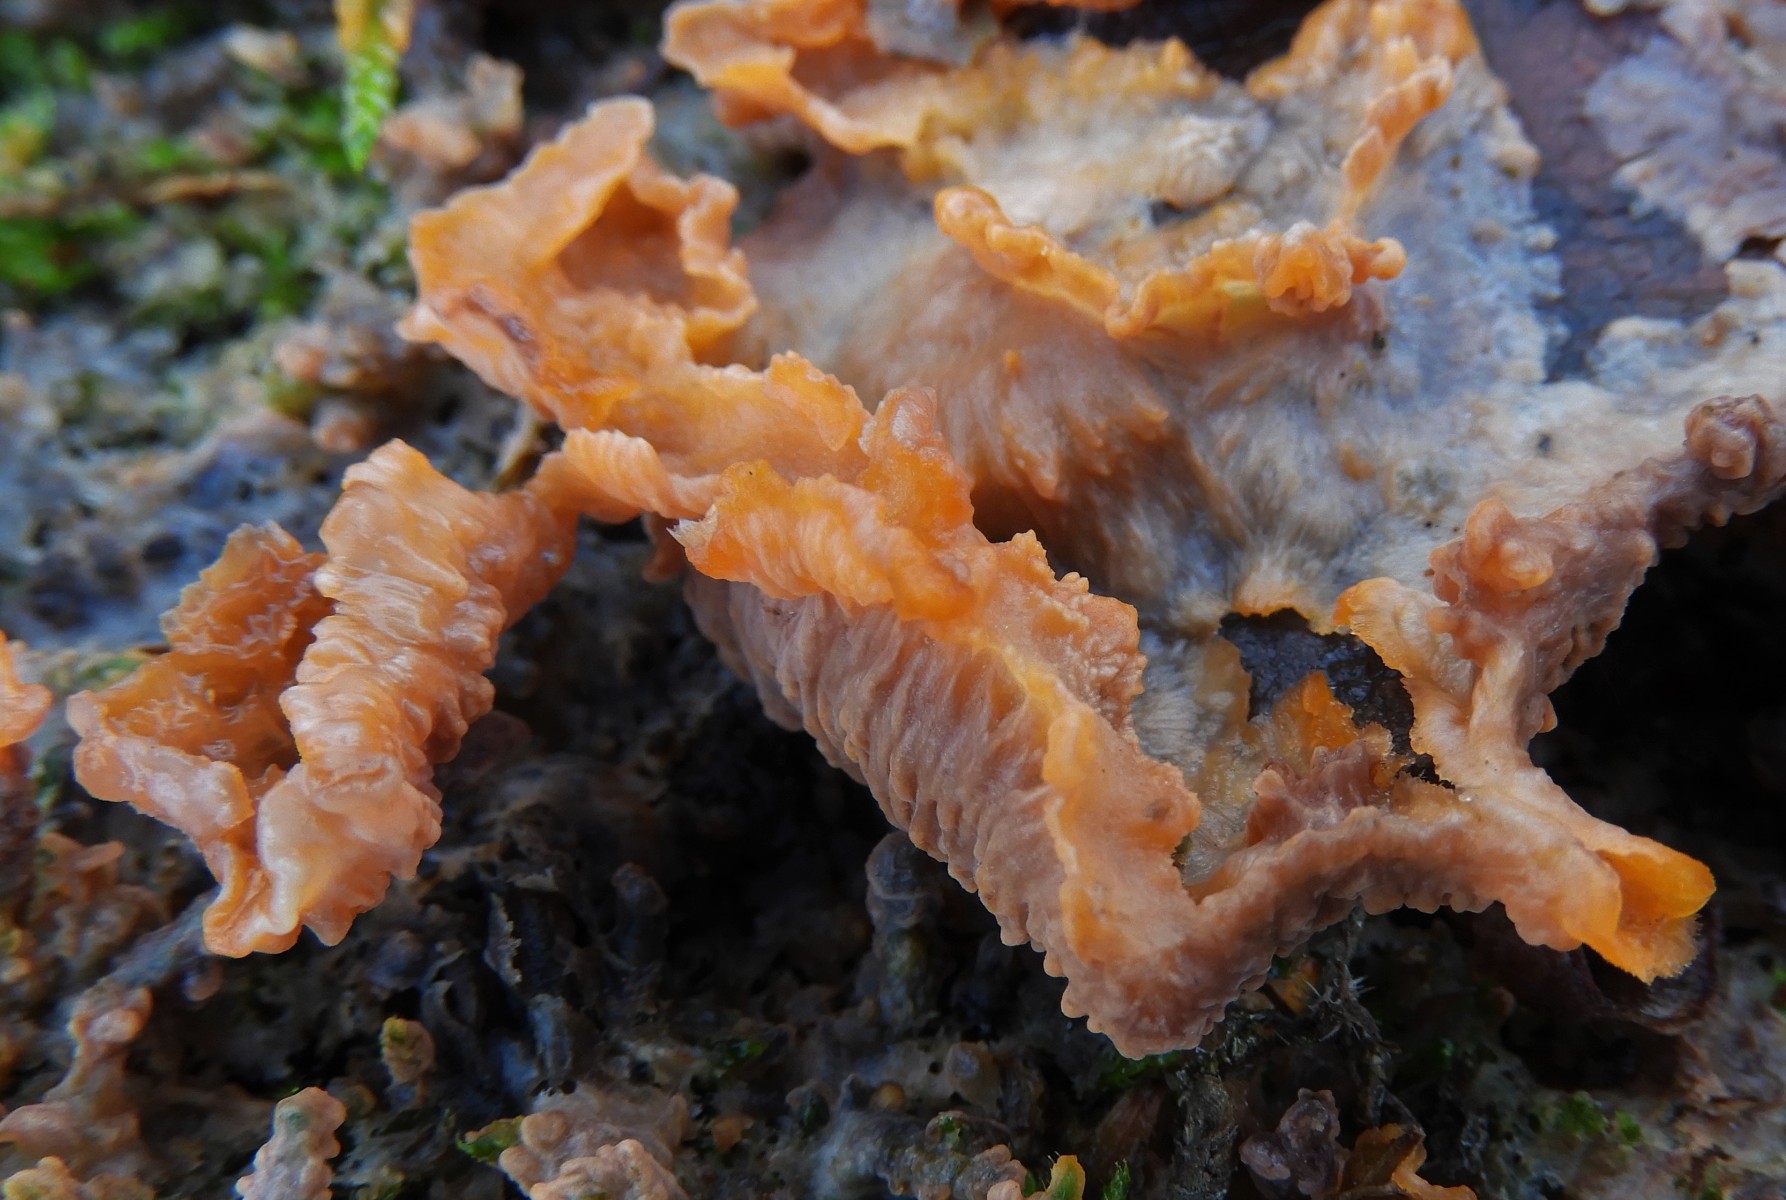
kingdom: Fungi
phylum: Basidiomycota
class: Agaricomycetes
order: Polyporales
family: Meruliaceae
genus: Phlebia
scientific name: Phlebia tremellosa
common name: bævrende åresvamp
